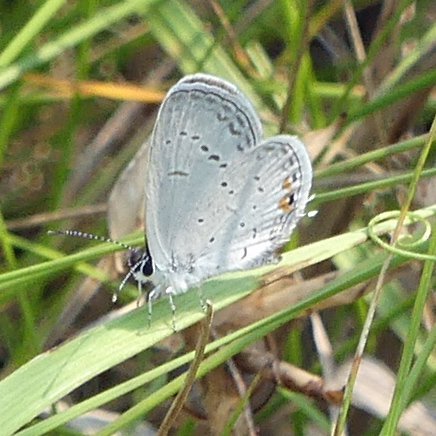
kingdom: Animalia
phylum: Arthropoda
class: Insecta
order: Lepidoptera
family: Lycaenidae
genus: Elkalyce
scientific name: Elkalyce comyntas
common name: Eastern Tailed-Blue
